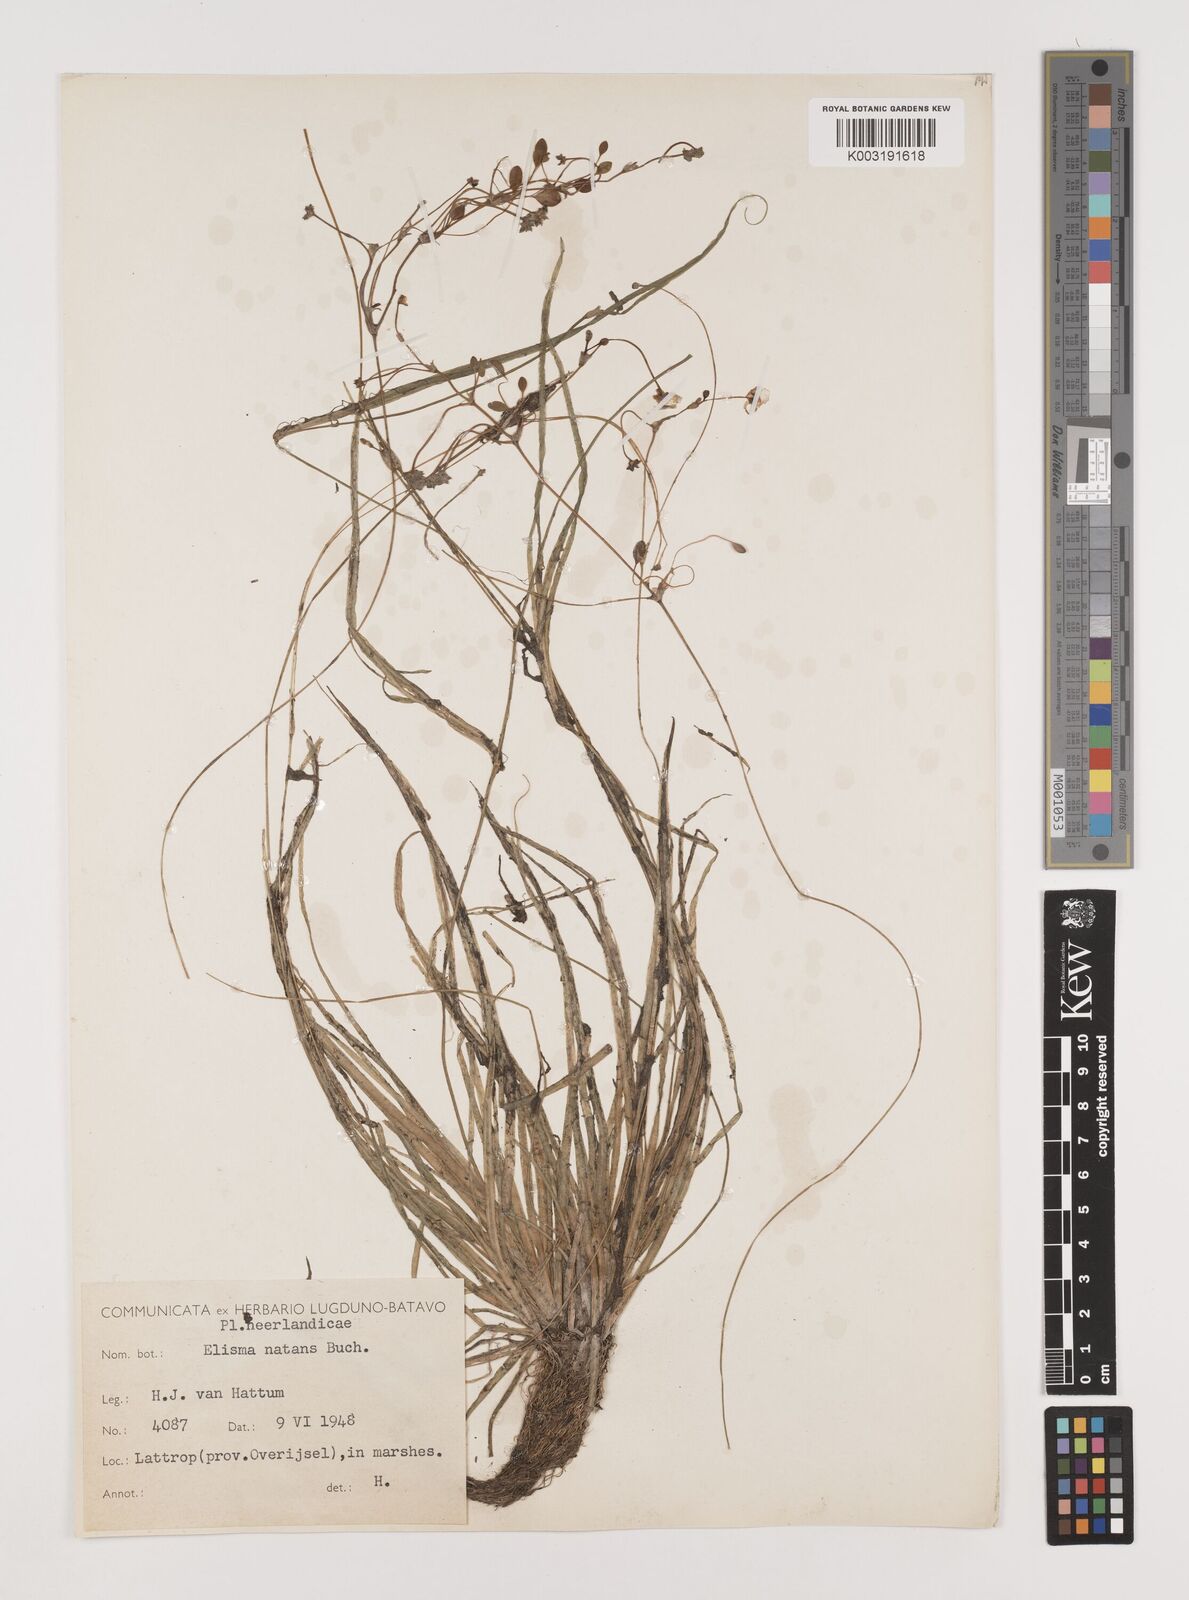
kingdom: Plantae
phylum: Tracheophyta
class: Liliopsida
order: Alismatales
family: Alismataceae
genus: Luronium
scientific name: Luronium natans
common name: Floating water-plantain
